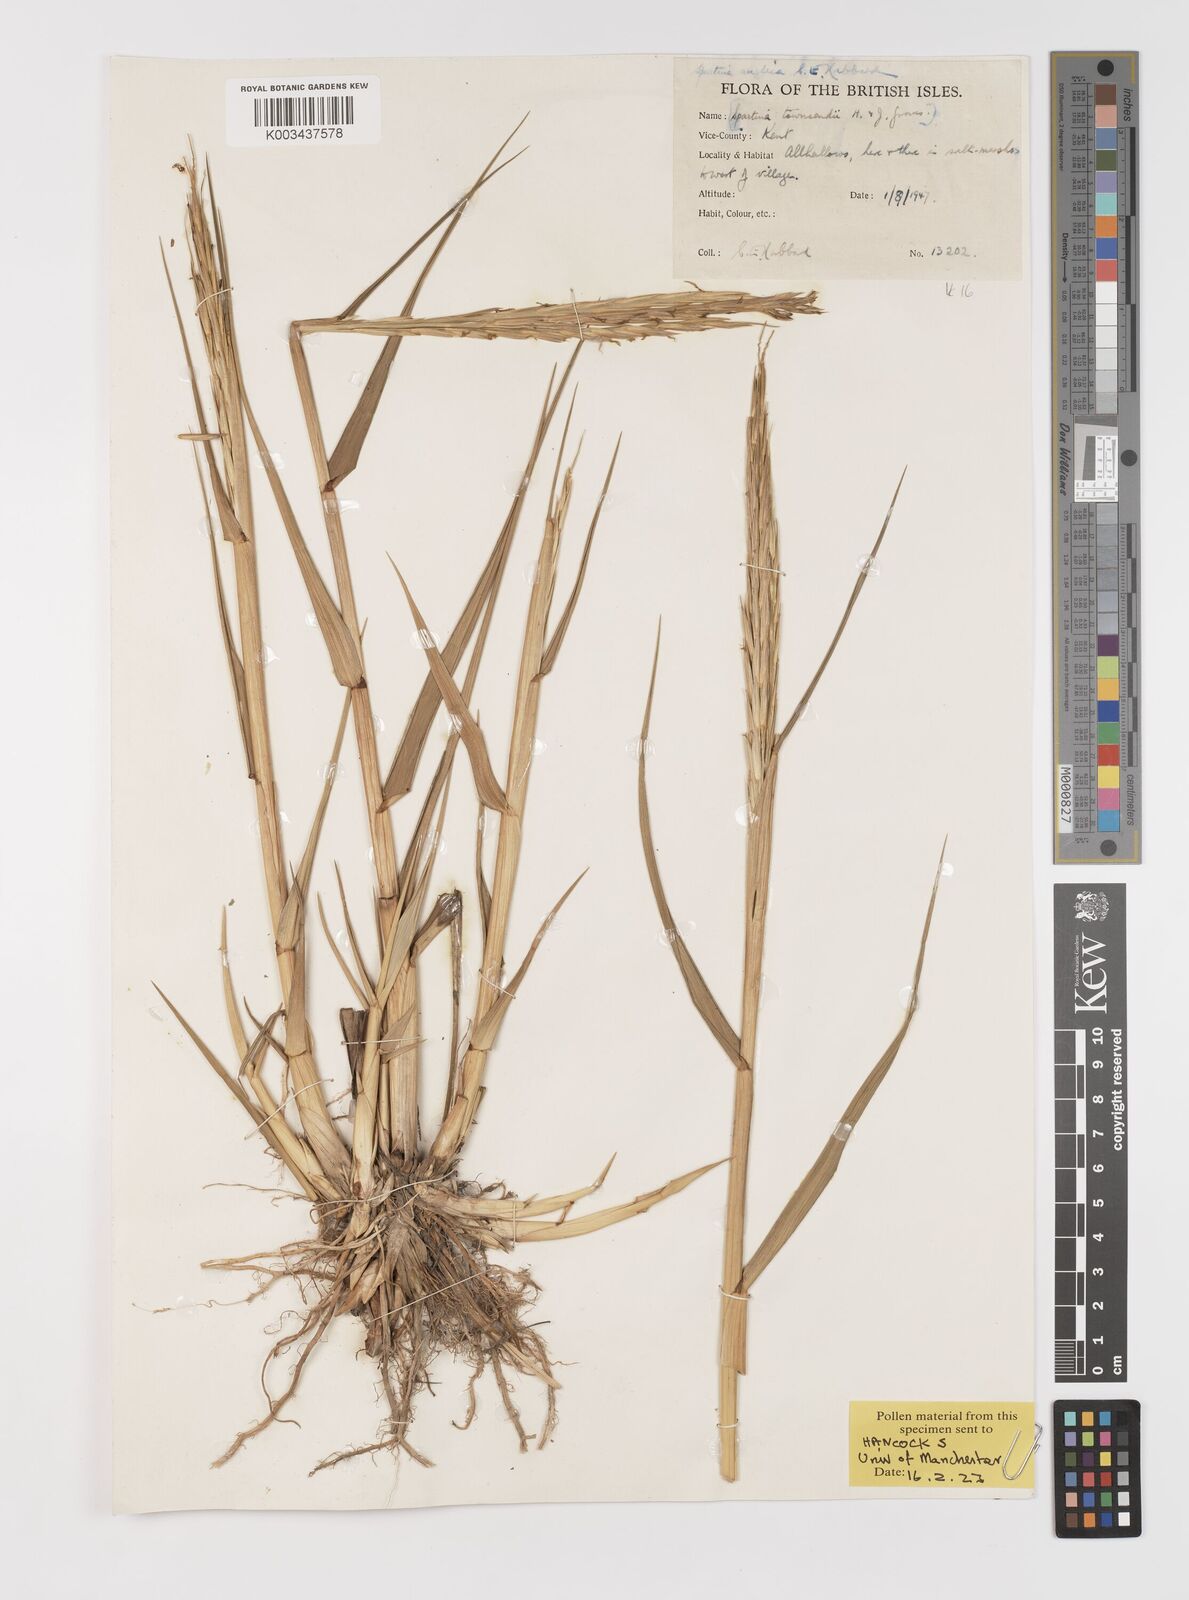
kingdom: Plantae
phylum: Tracheophyta
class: Liliopsida
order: Poales
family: Poaceae
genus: Sporobolus
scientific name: Sporobolus anglicus
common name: English cordgrass
